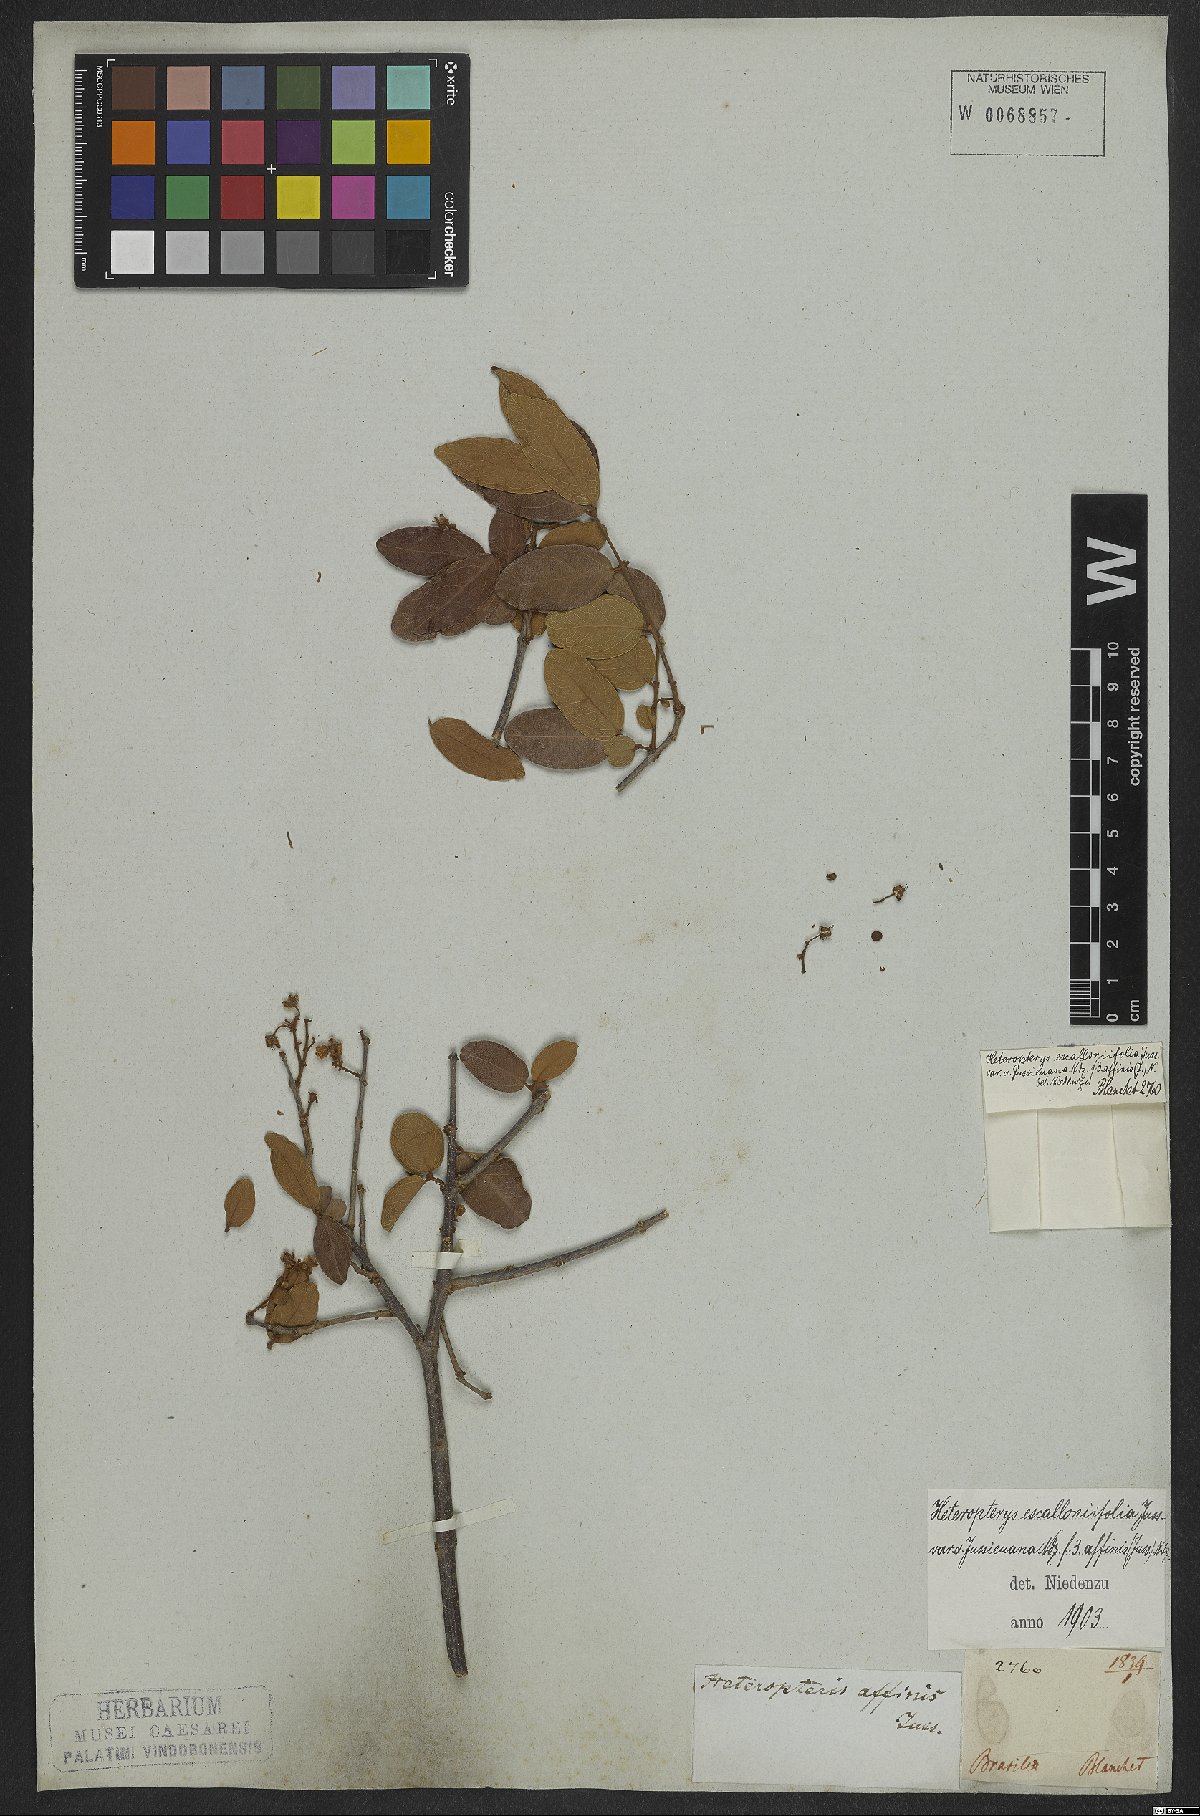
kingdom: Plantae
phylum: Tracheophyta
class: Magnoliopsida
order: Malpighiales
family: Malpighiaceae
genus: Heteropterys
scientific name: Heteropterys escalloniifolia
